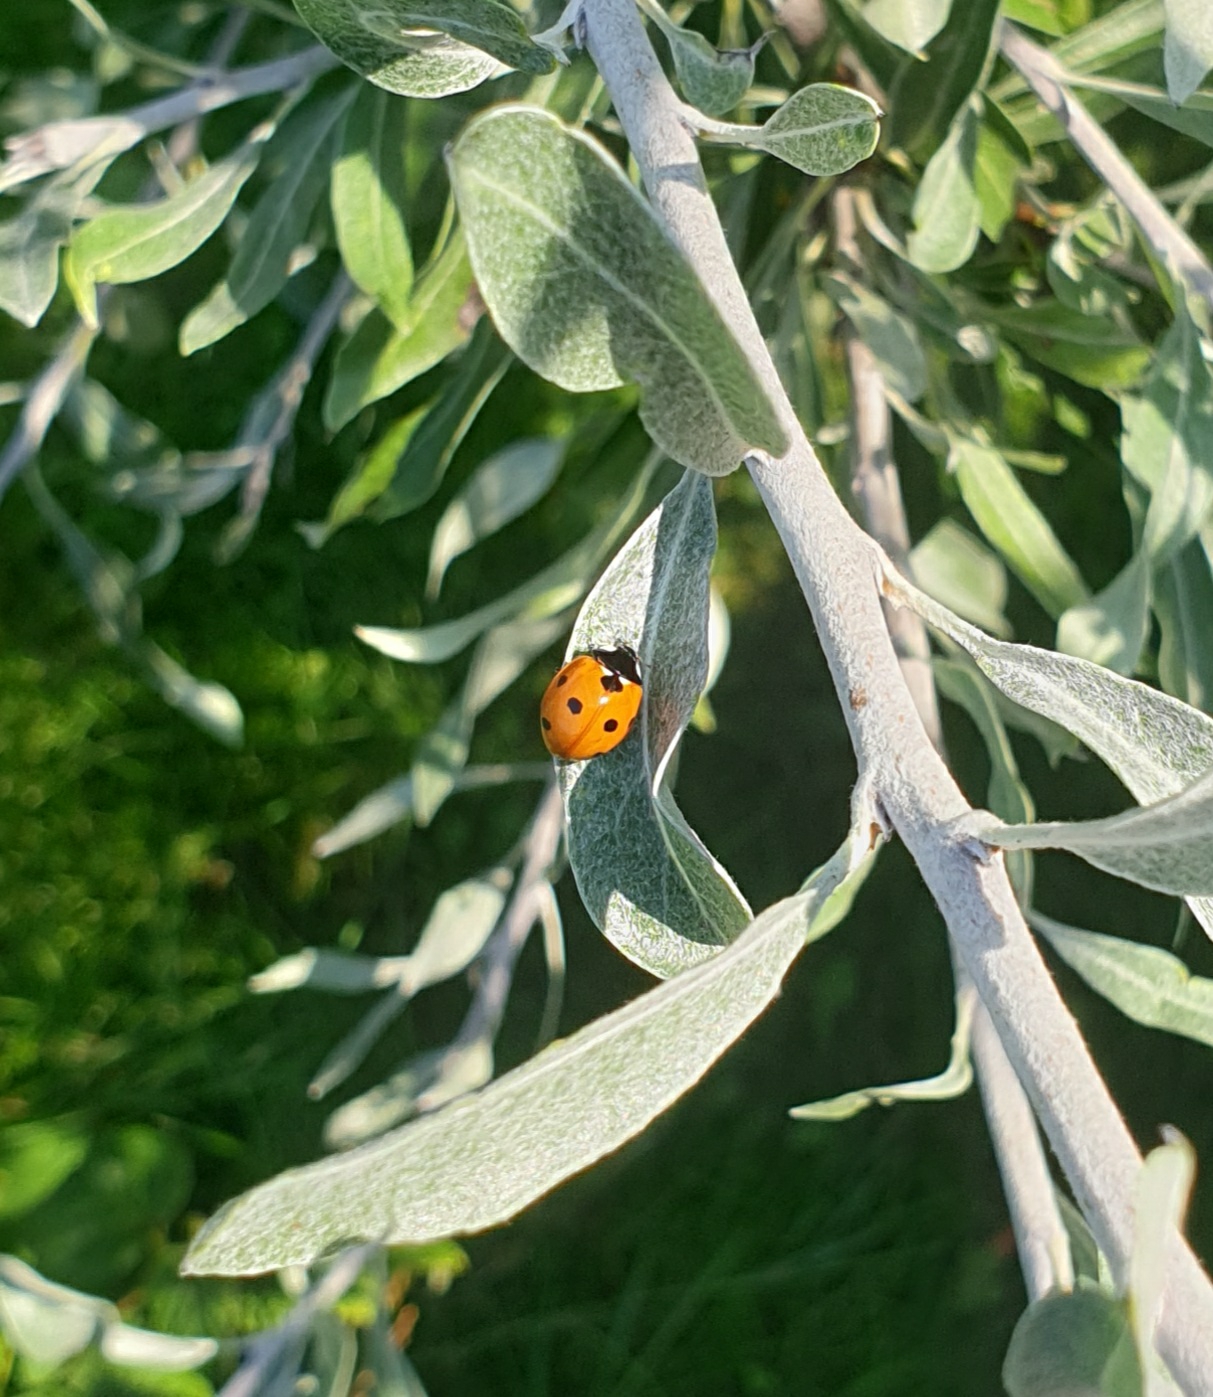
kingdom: Animalia
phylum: Arthropoda
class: Insecta
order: Coleoptera
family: Coccinellidae
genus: Coccinella
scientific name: Coccinella septempunctata
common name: Syvplettet mariehøne
